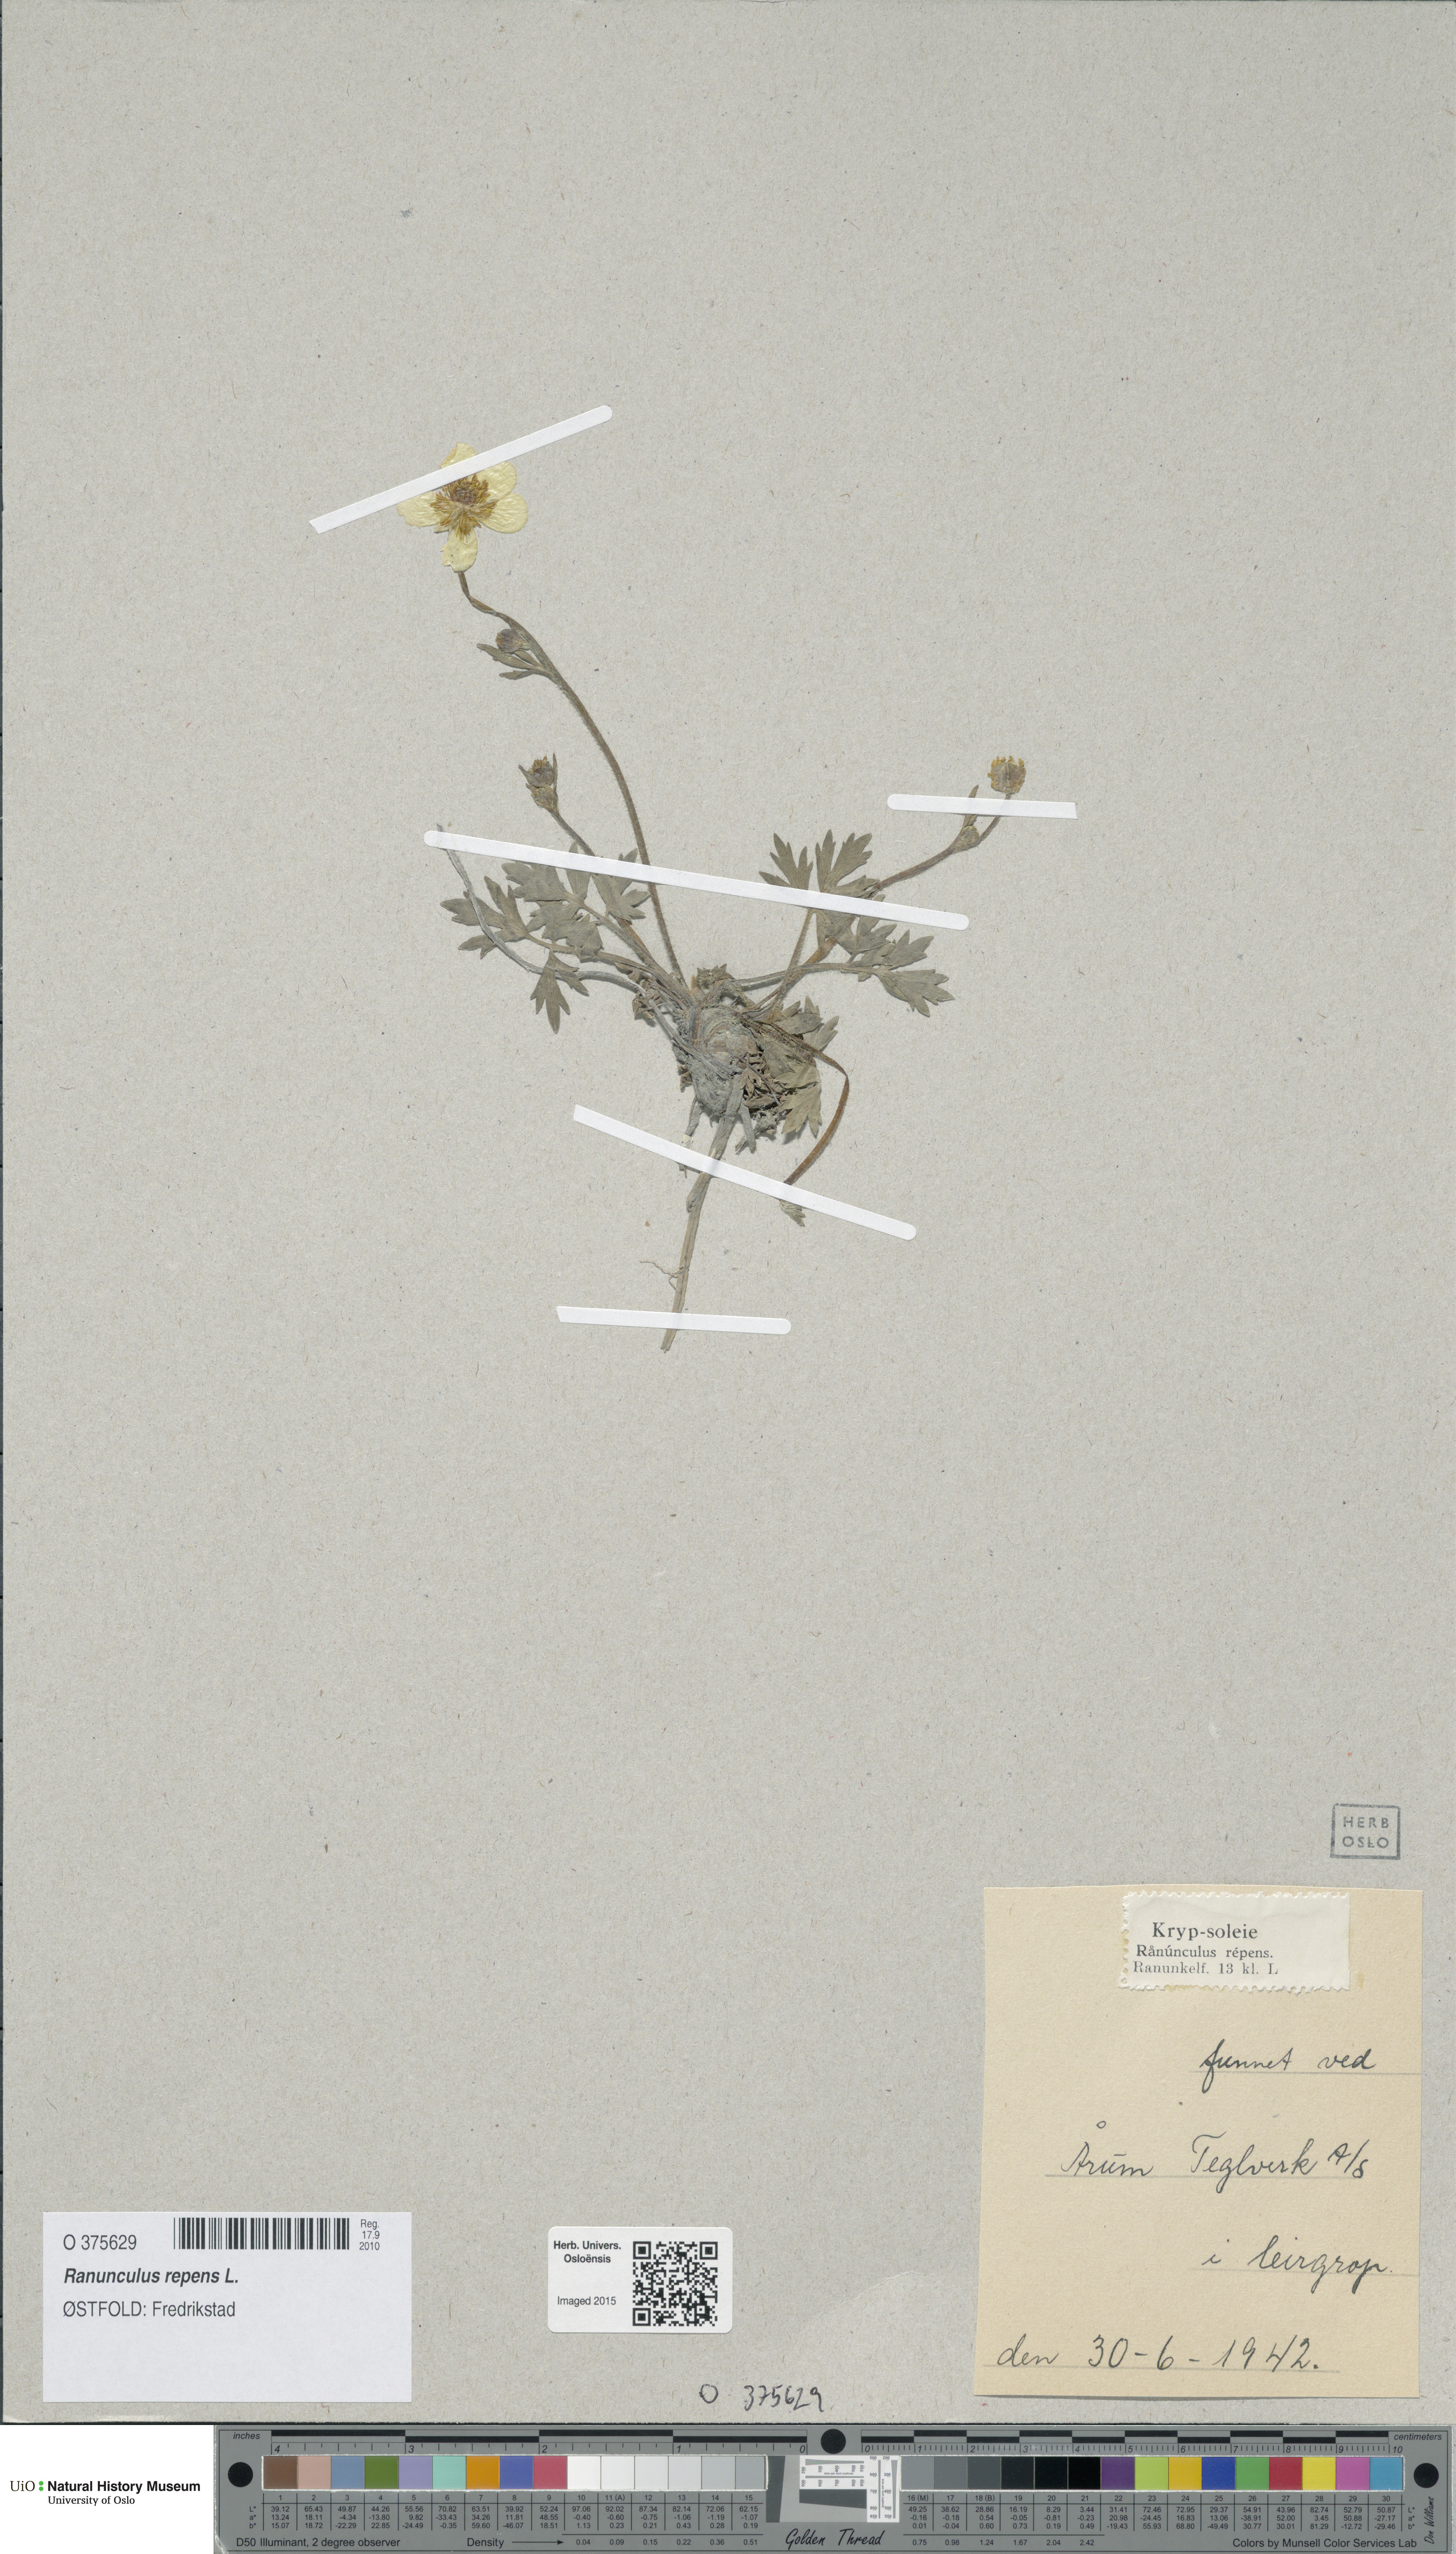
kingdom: Plantae
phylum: Tracheophyta
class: Magnoliopsida
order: Ranunculales
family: Ranunculaceae
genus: Ranunculus
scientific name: Ranunculus repens
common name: Creeping buttercup
